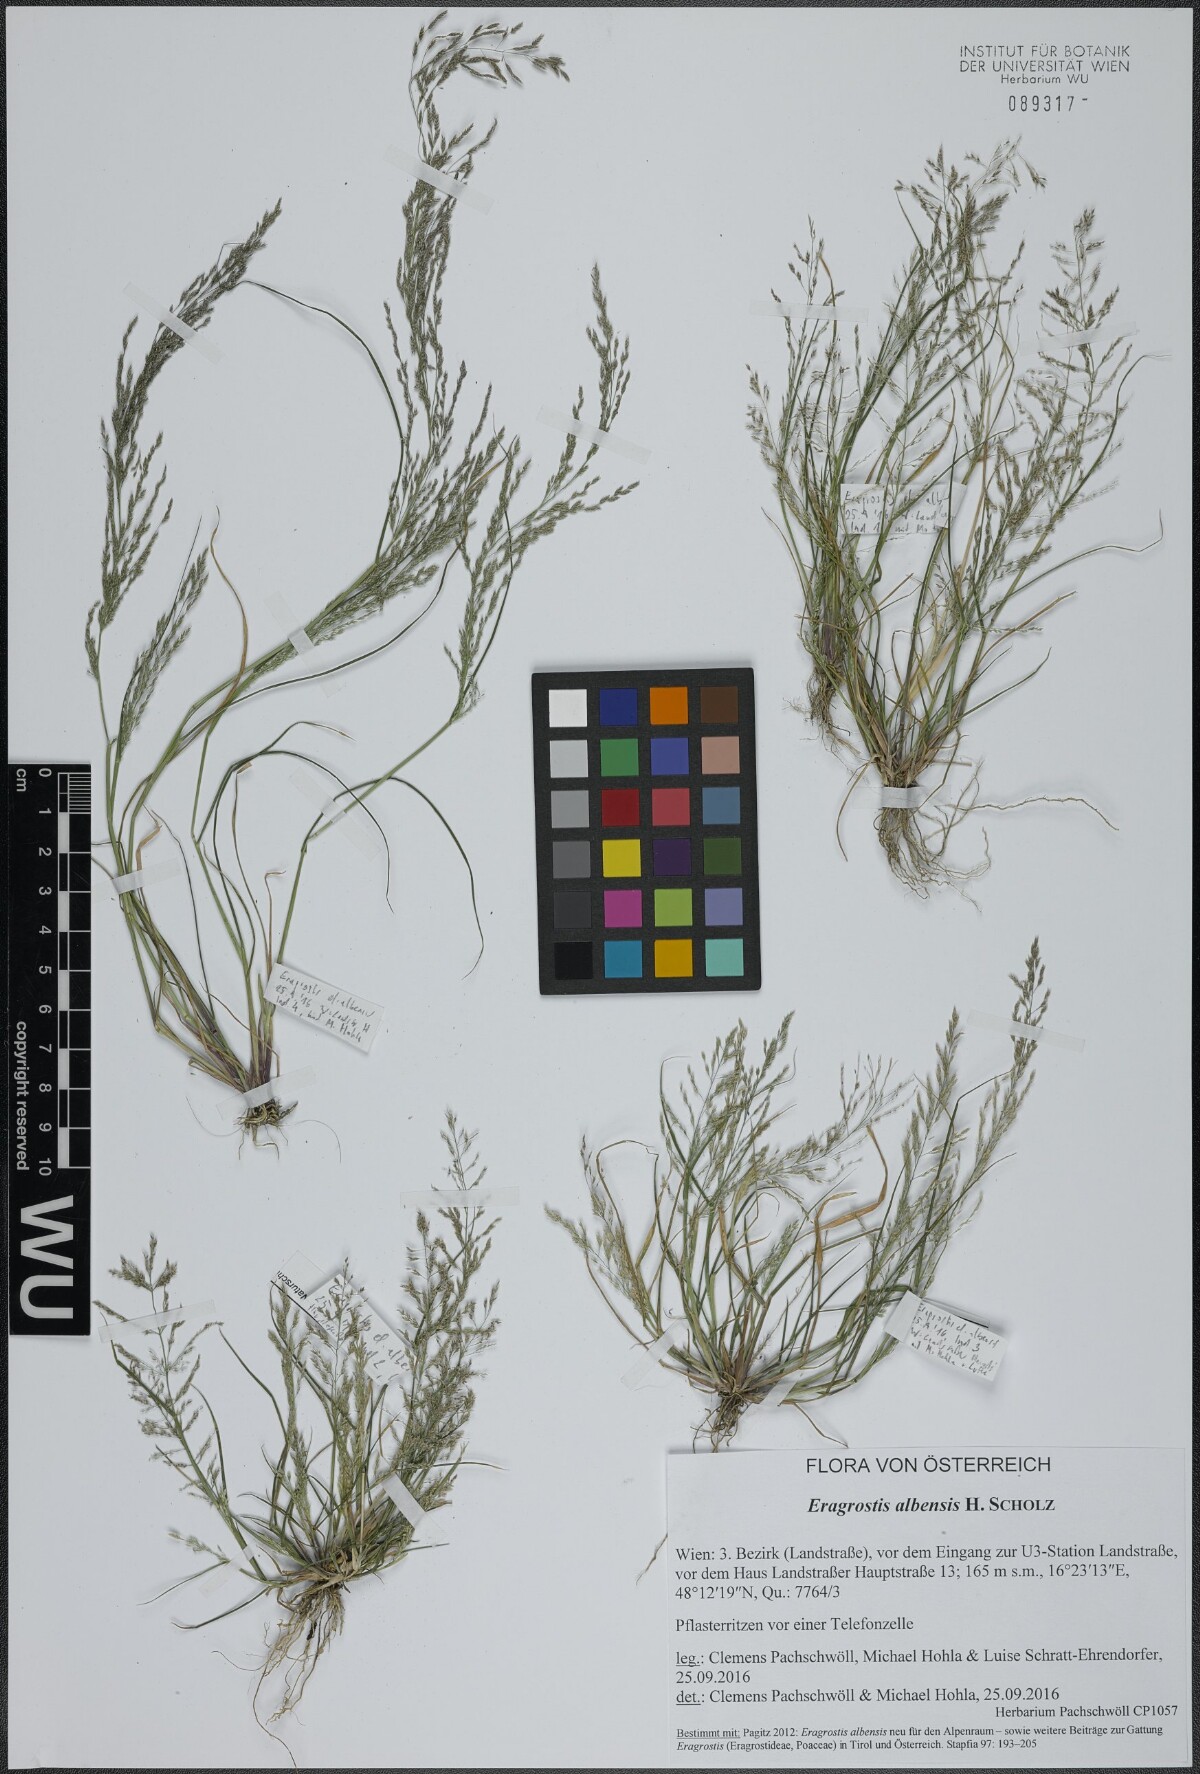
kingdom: Plantae
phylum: Tracheophyta
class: Liliopsida
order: Poales
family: Poaceae
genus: Eragrostis
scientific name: Eragrostis pilosa
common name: Indian lovegrass
